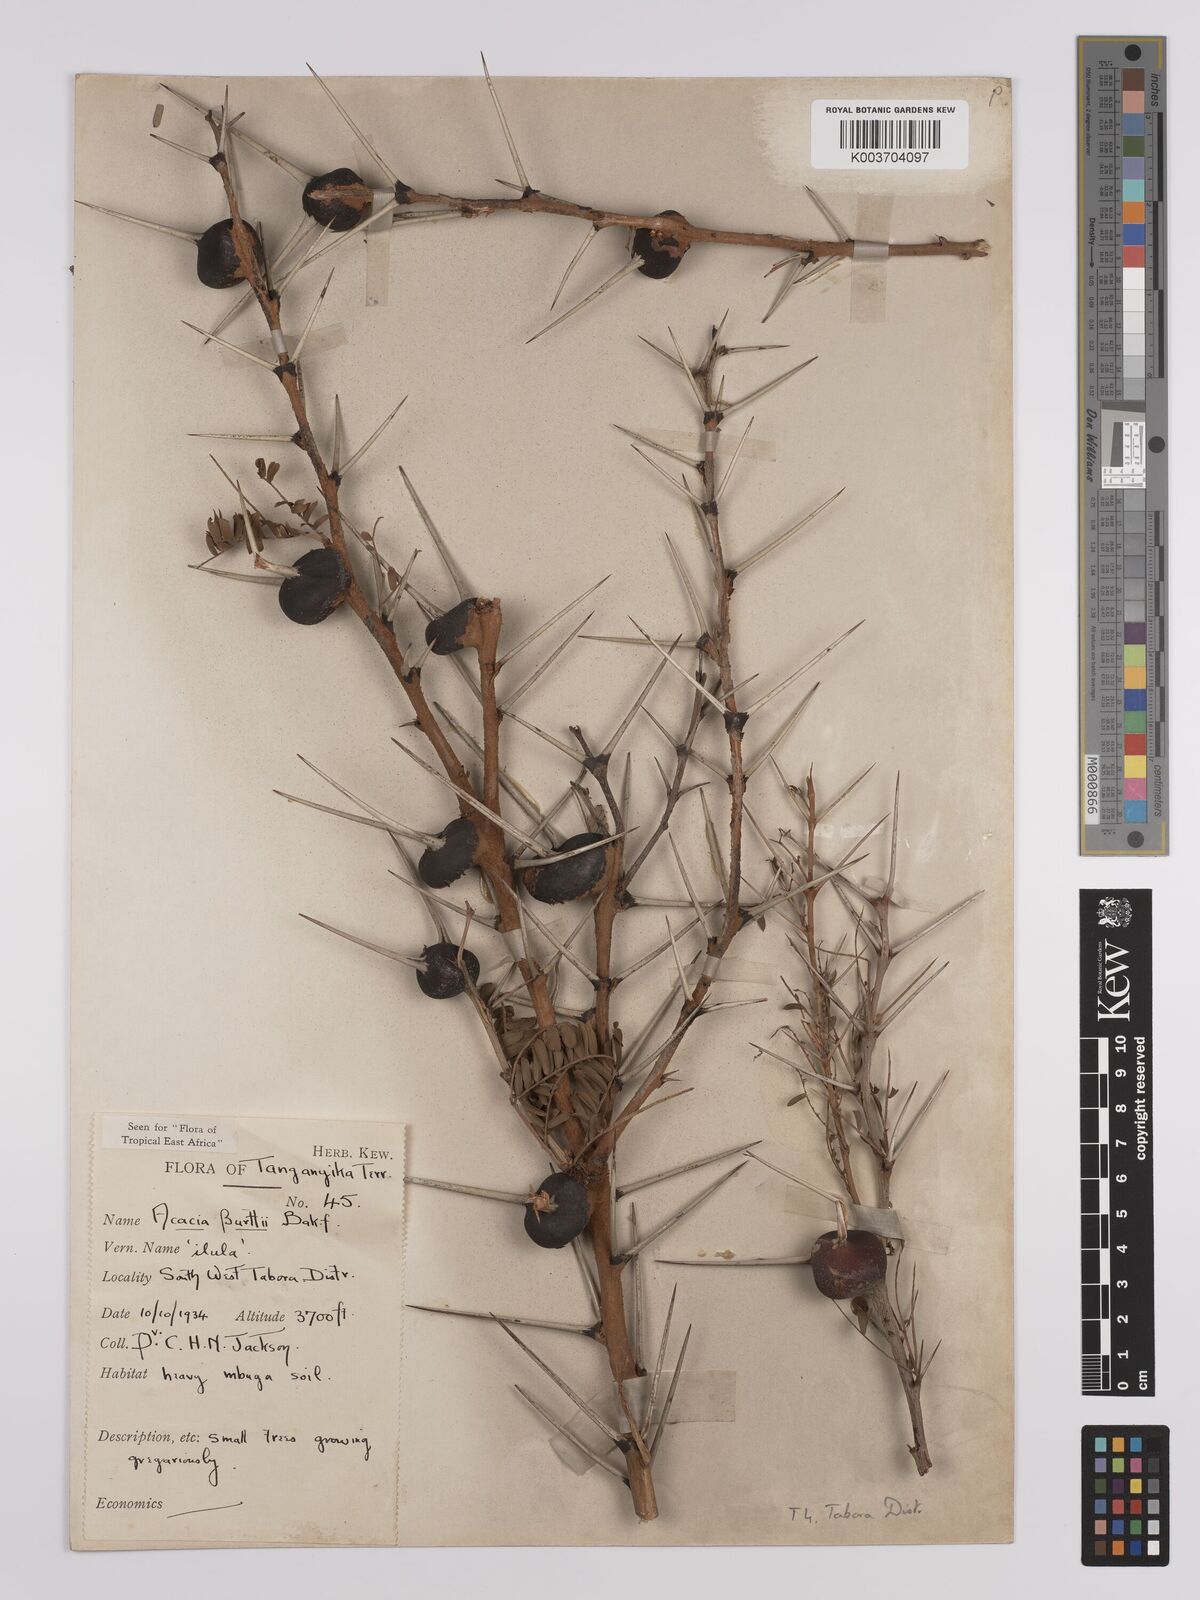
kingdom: Plantae
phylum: Tracheophyta
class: Magnoliopsida
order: Fabales
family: Fabaceae
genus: Vachellia
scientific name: Vachellia burttii
